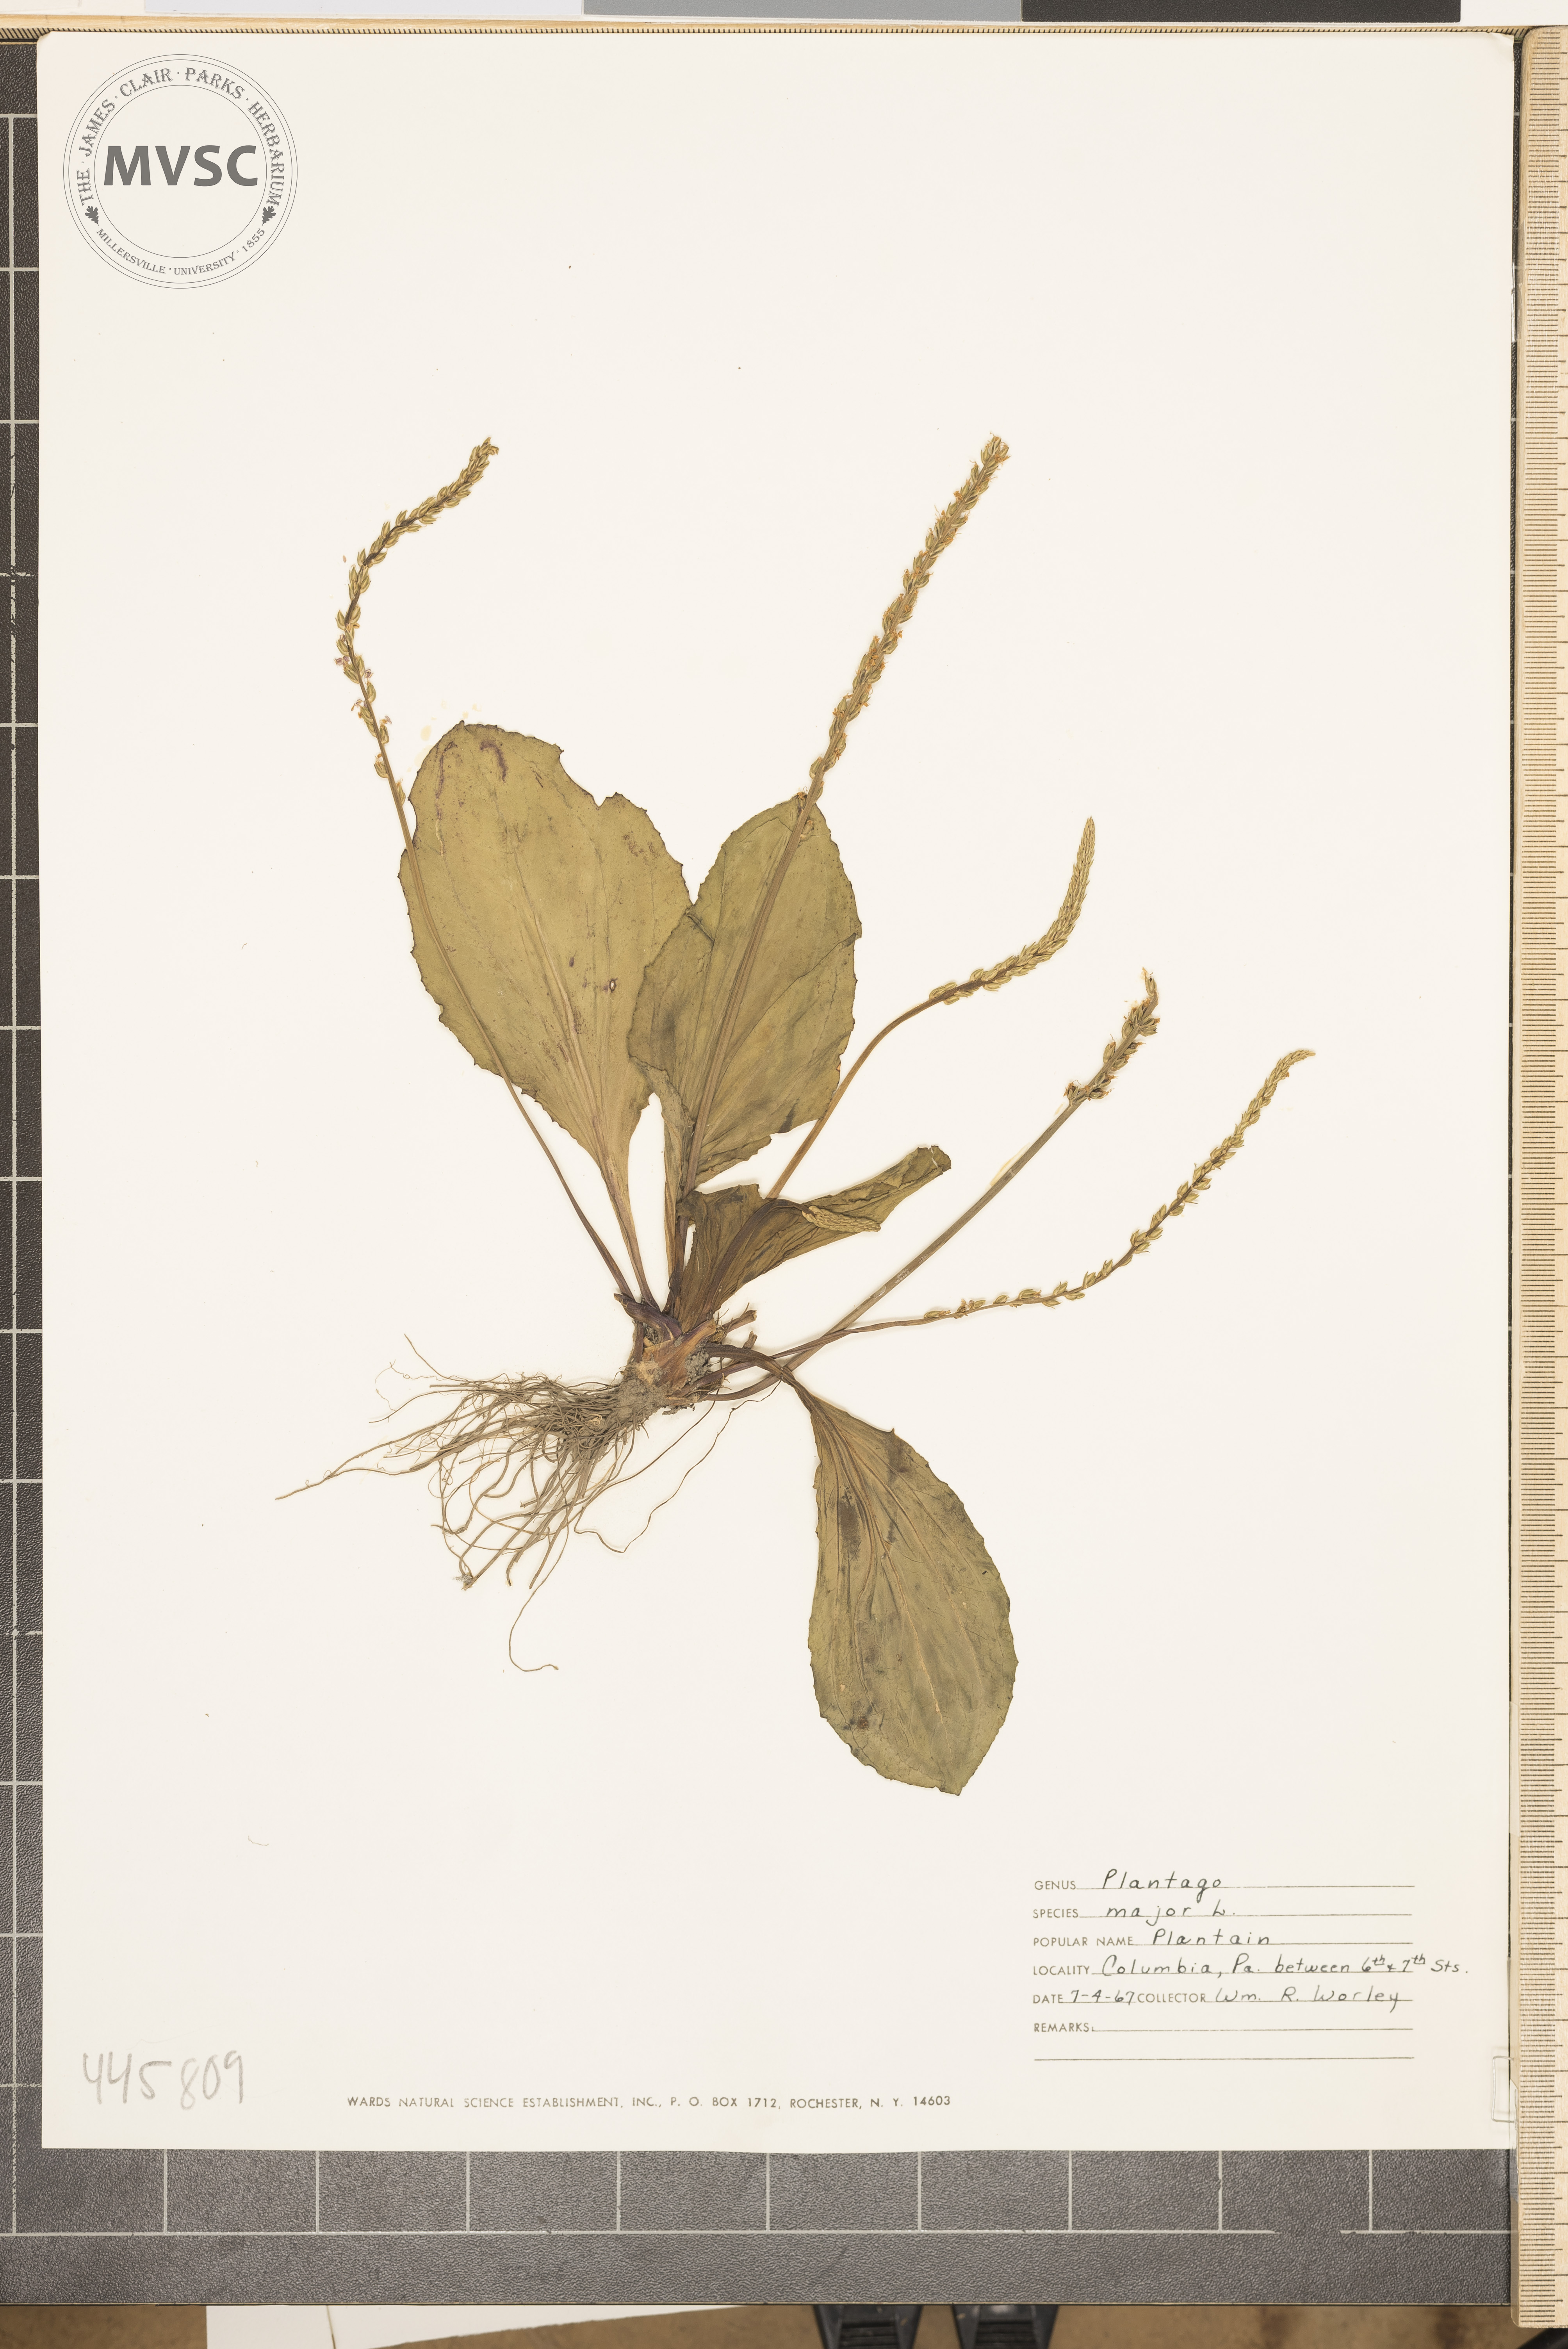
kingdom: Plantae
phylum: Tracheophyta
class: Magnoliopsida
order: Lamiales
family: Plantaginaceae
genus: Plantago
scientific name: Plantago major
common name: Plantain
